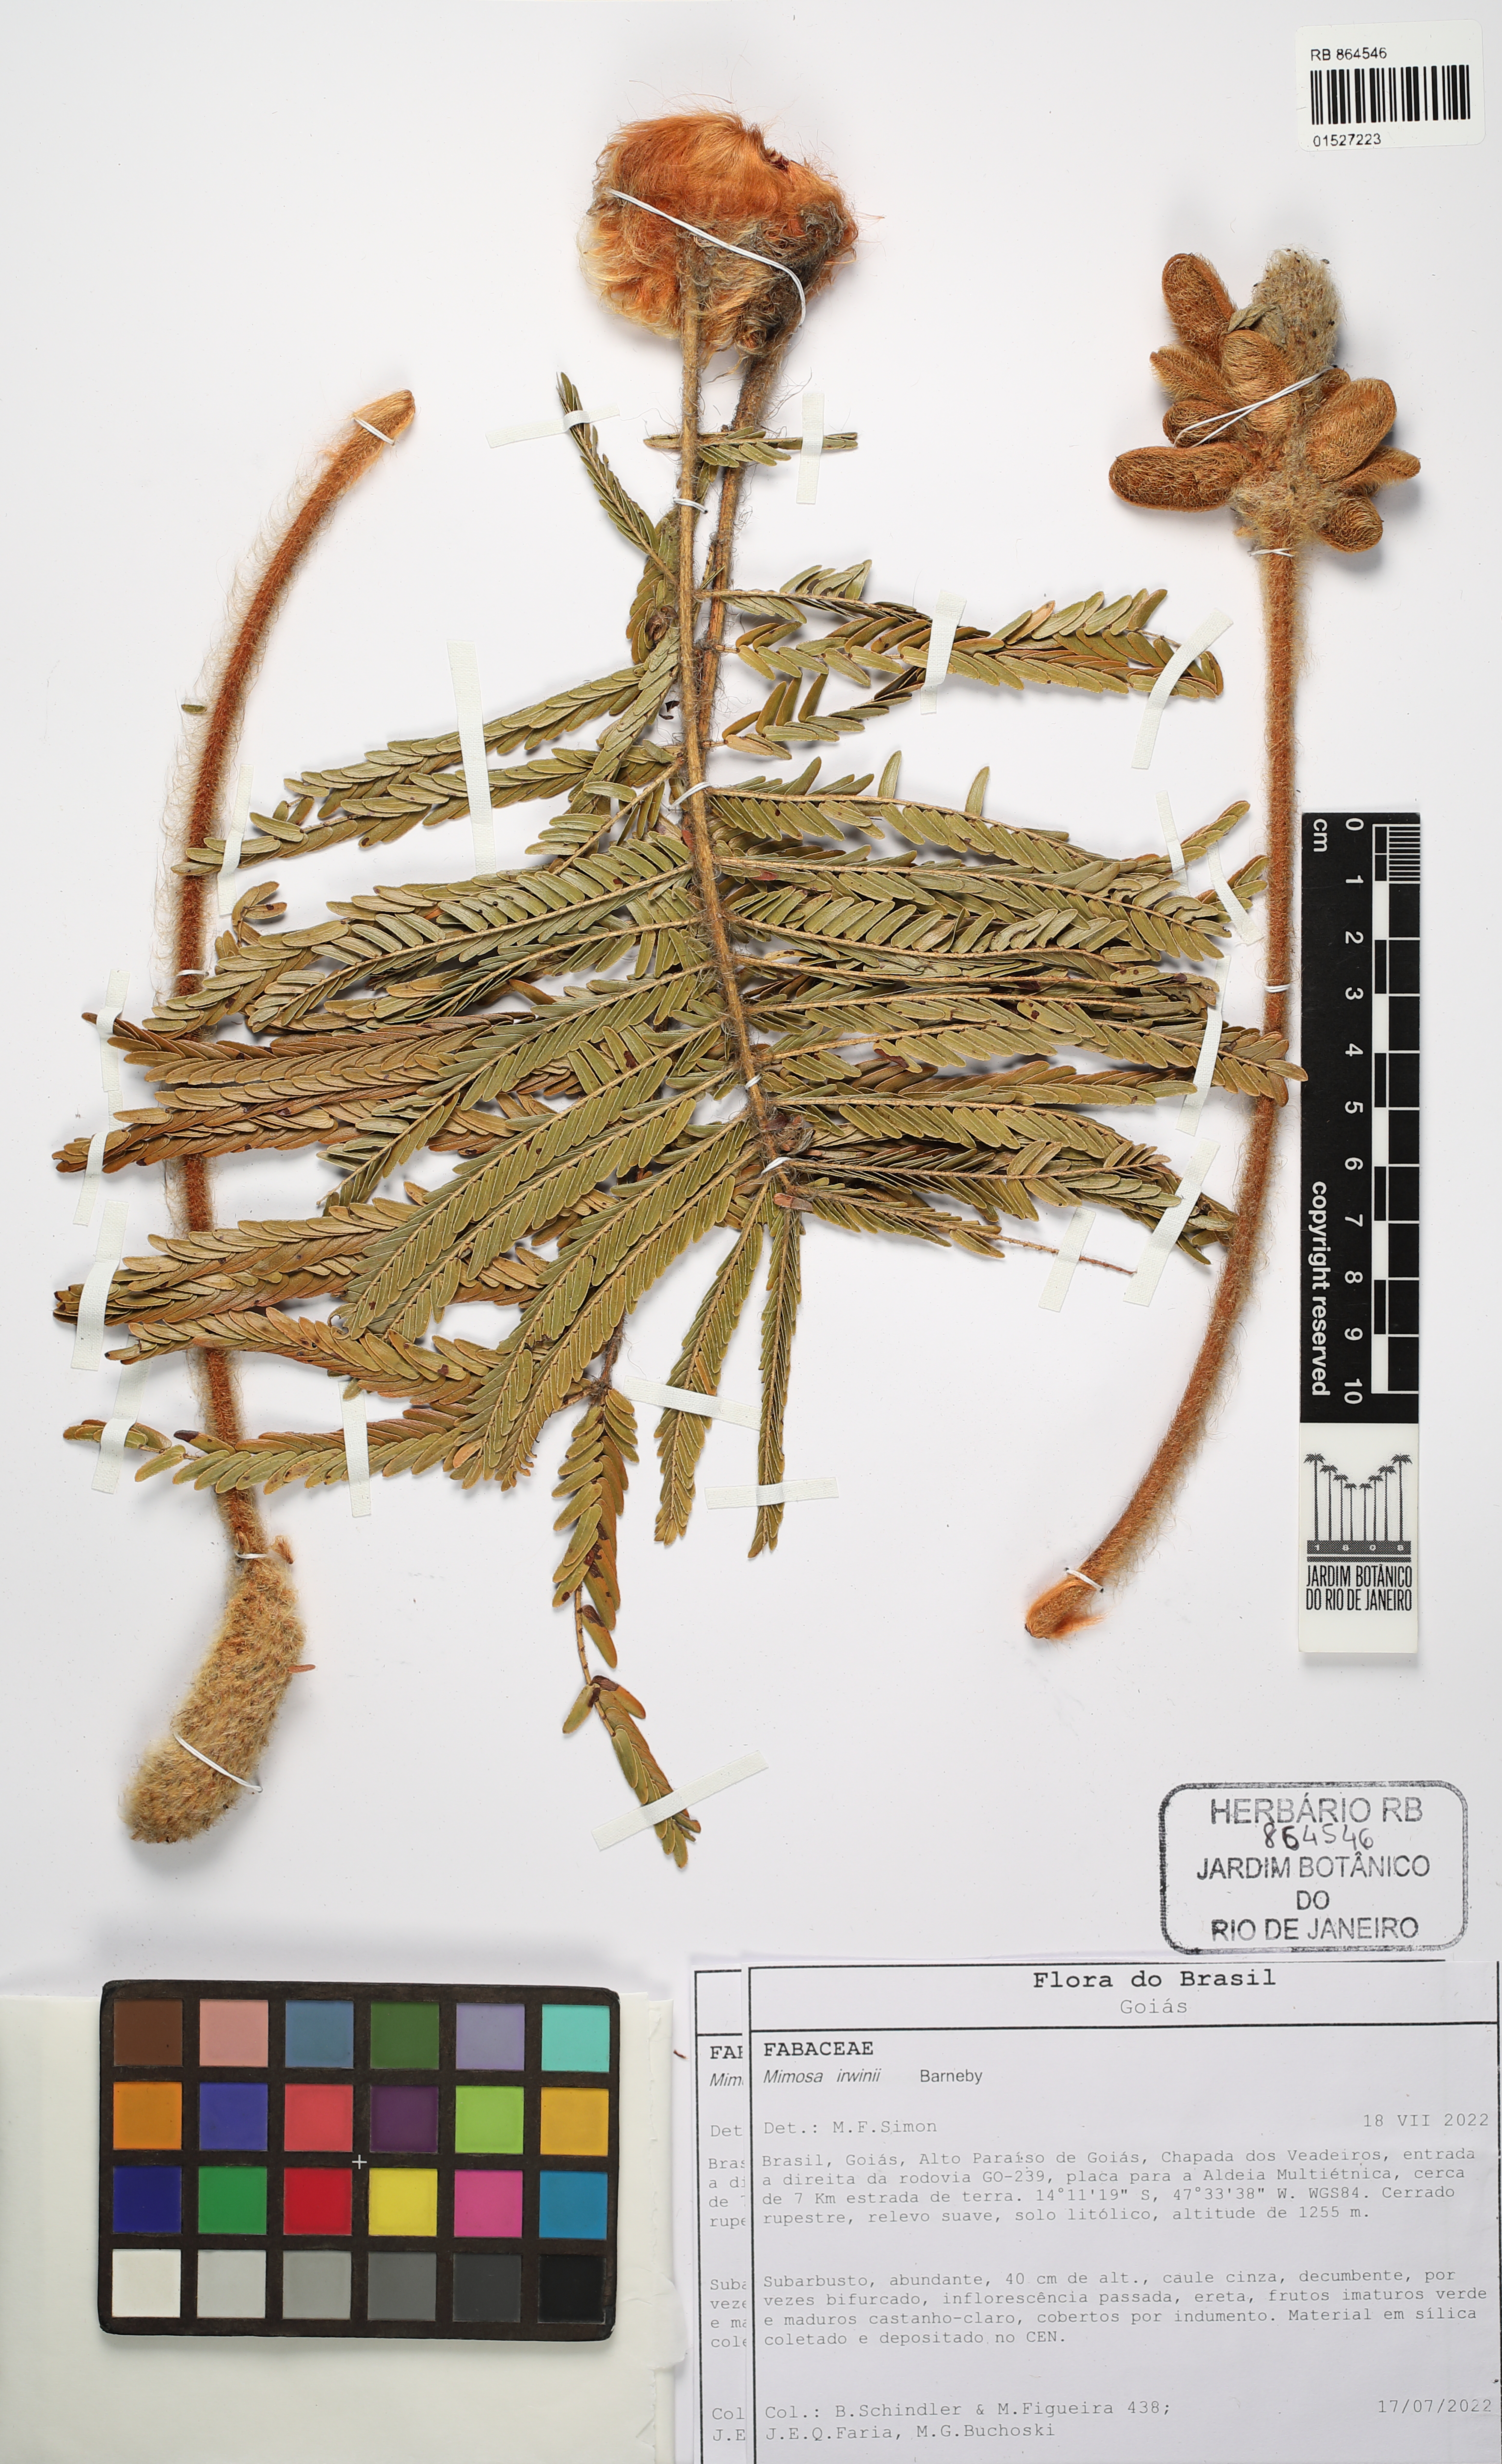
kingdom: Plantae
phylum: Tracheophyta
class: Magnoliopsida
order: Fabales
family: Fabaceae
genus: Mimosa
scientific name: Mimosa irwinii
